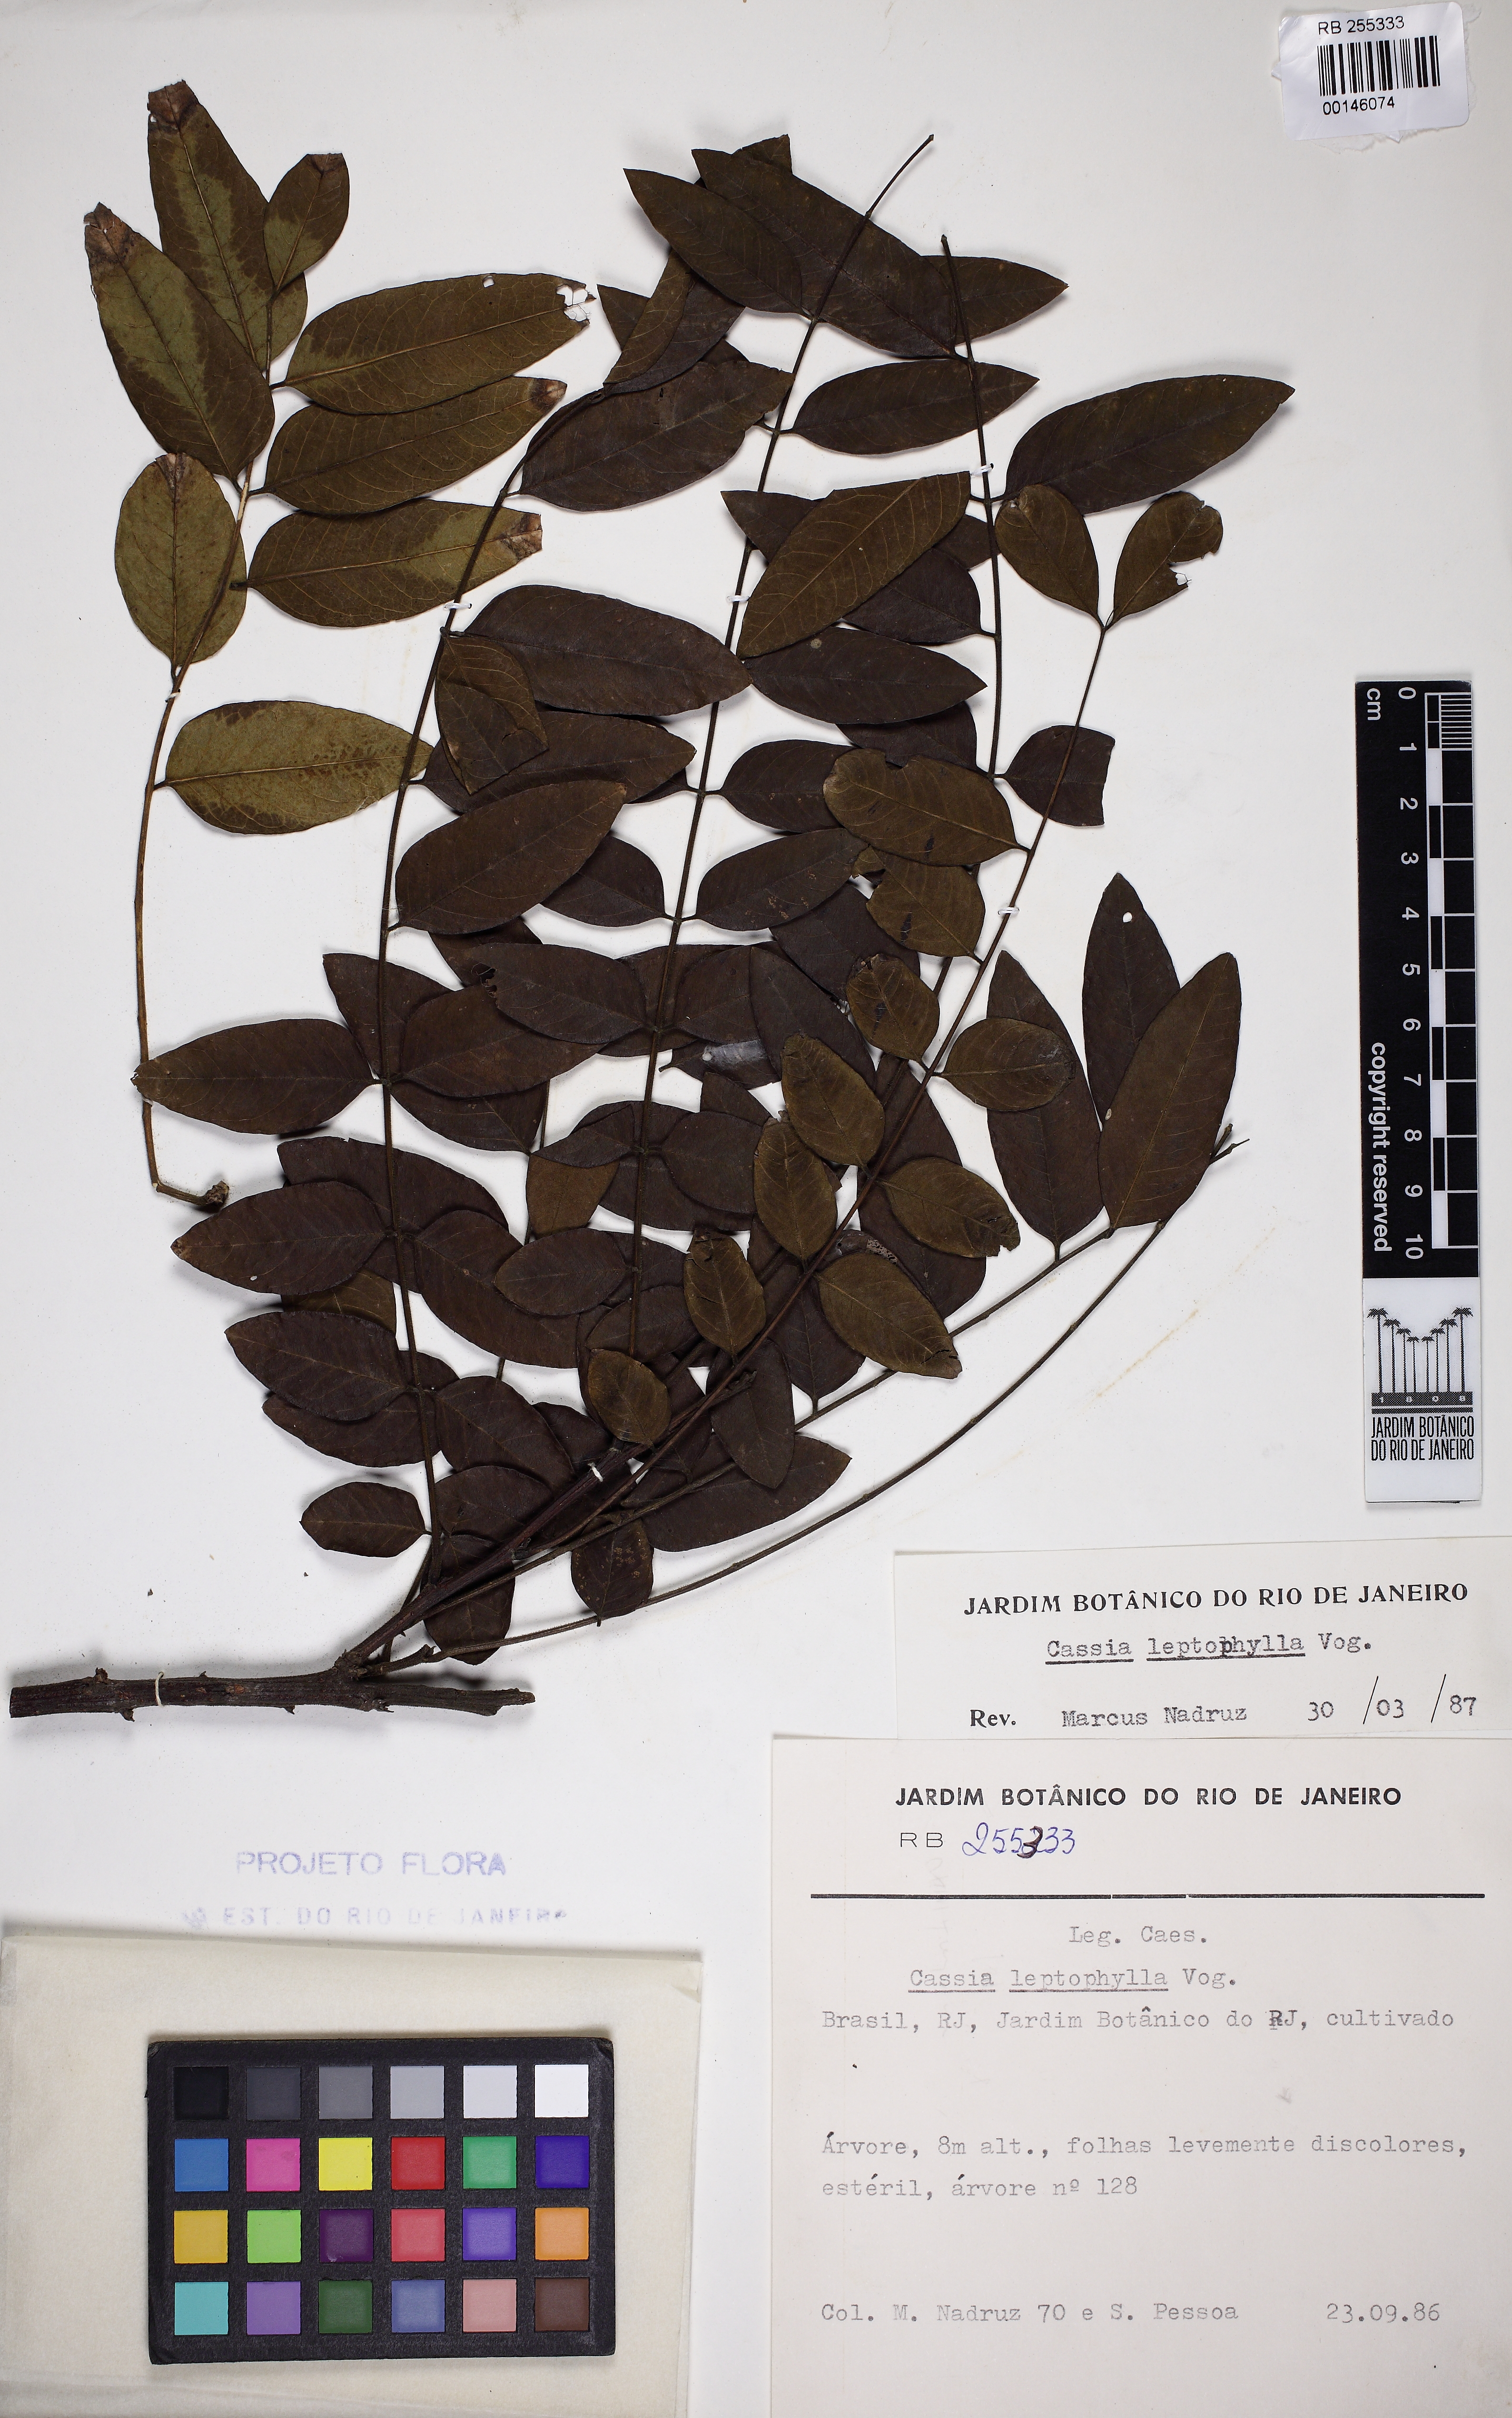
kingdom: Plantae
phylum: Tracheophyta
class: Magnoliopsida
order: Fabales
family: Fabaceae
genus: Cassia
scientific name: Cassia leptophylla
